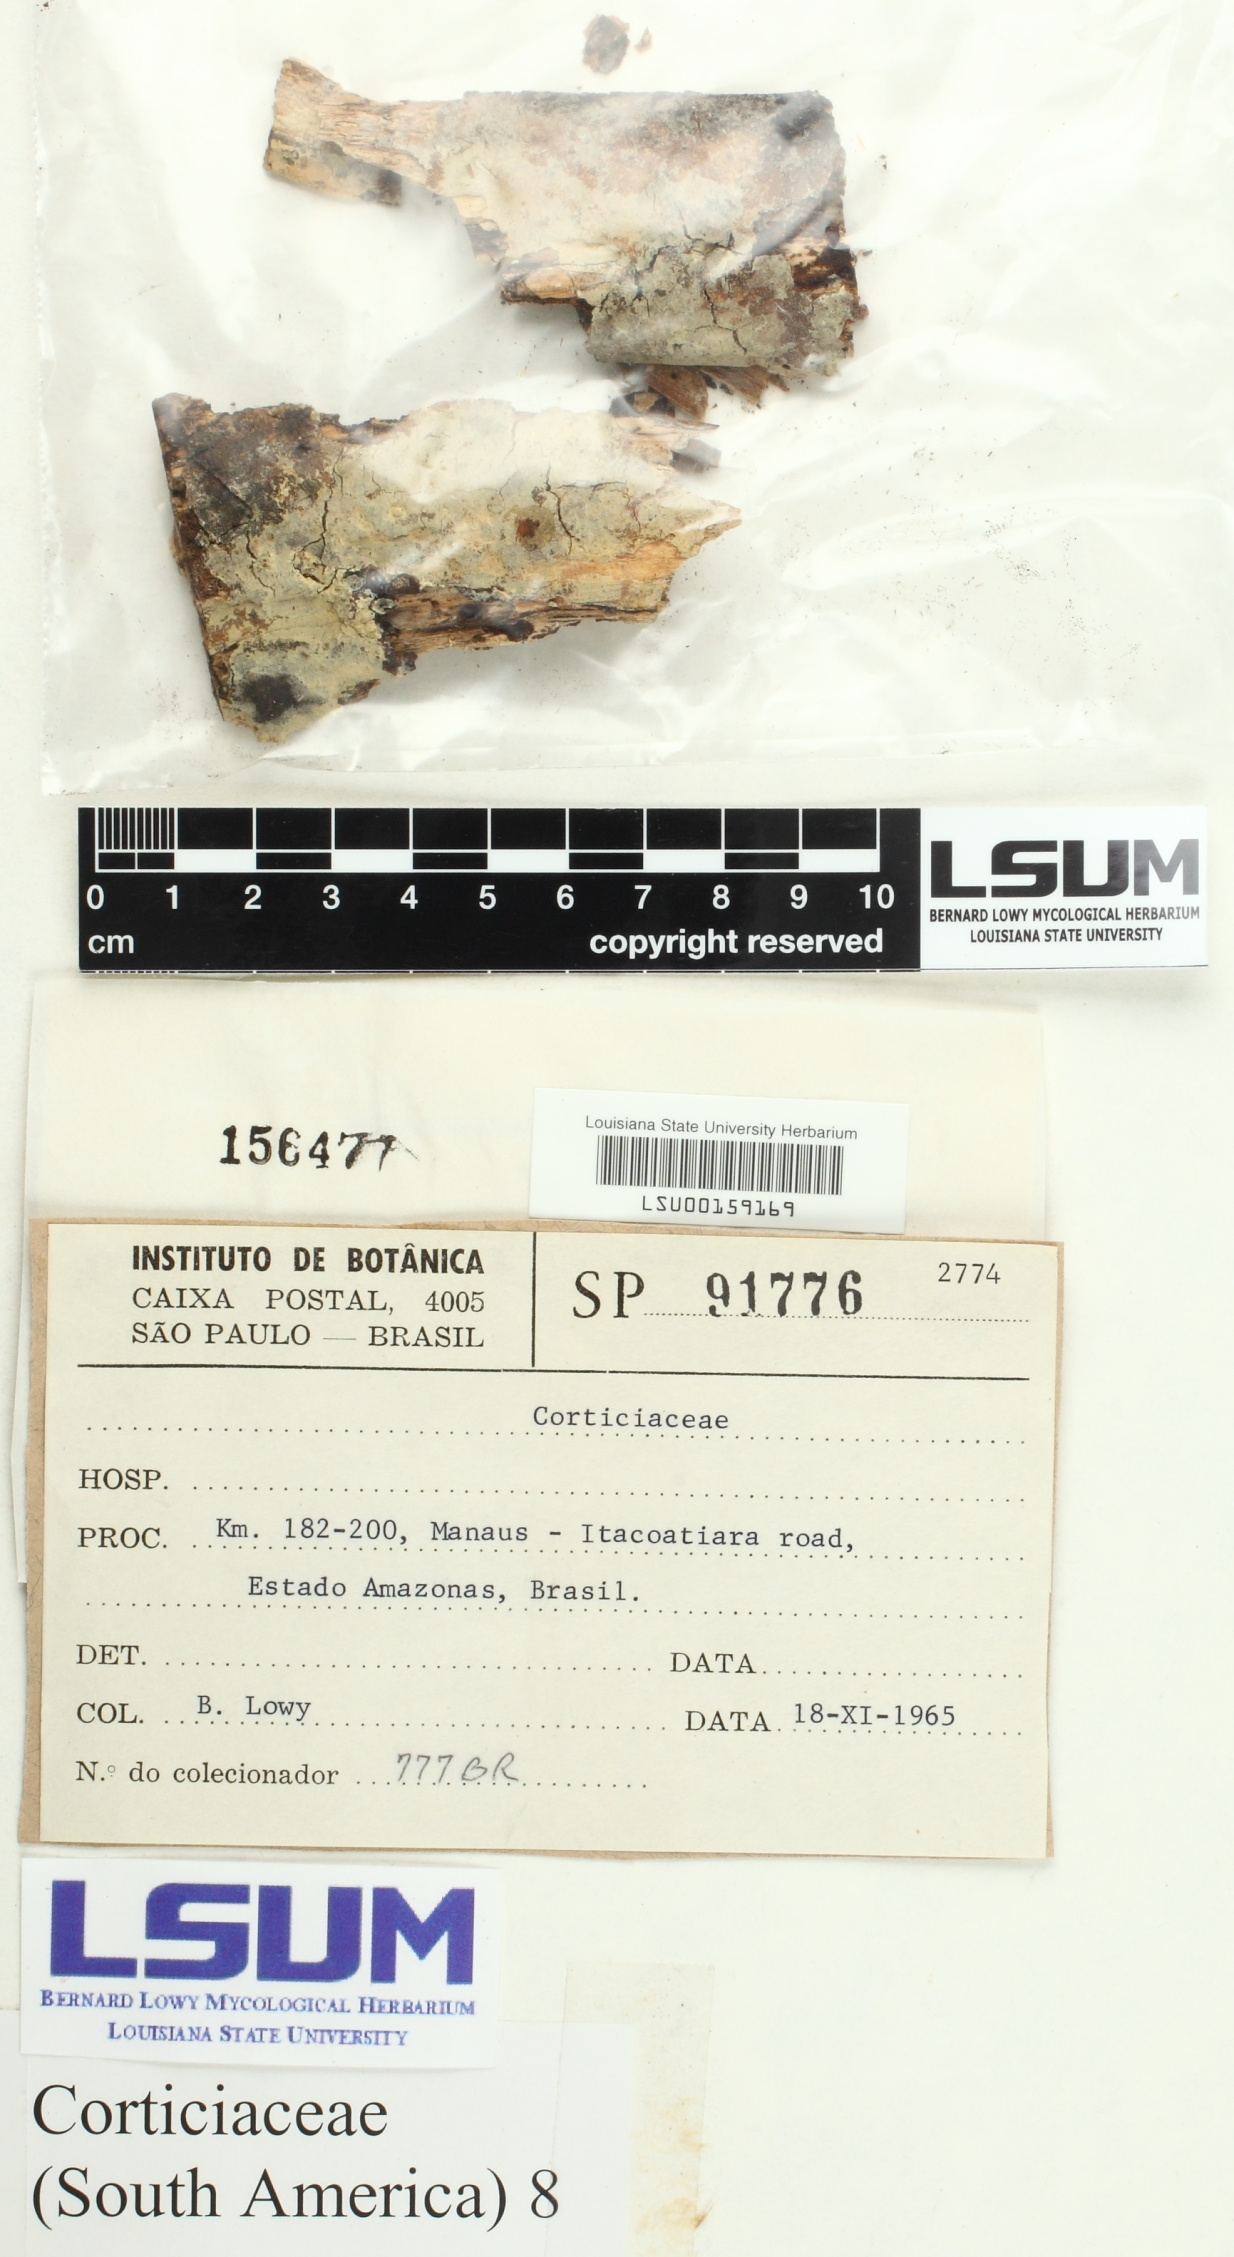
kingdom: Fungi
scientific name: Fungi
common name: Fungi
